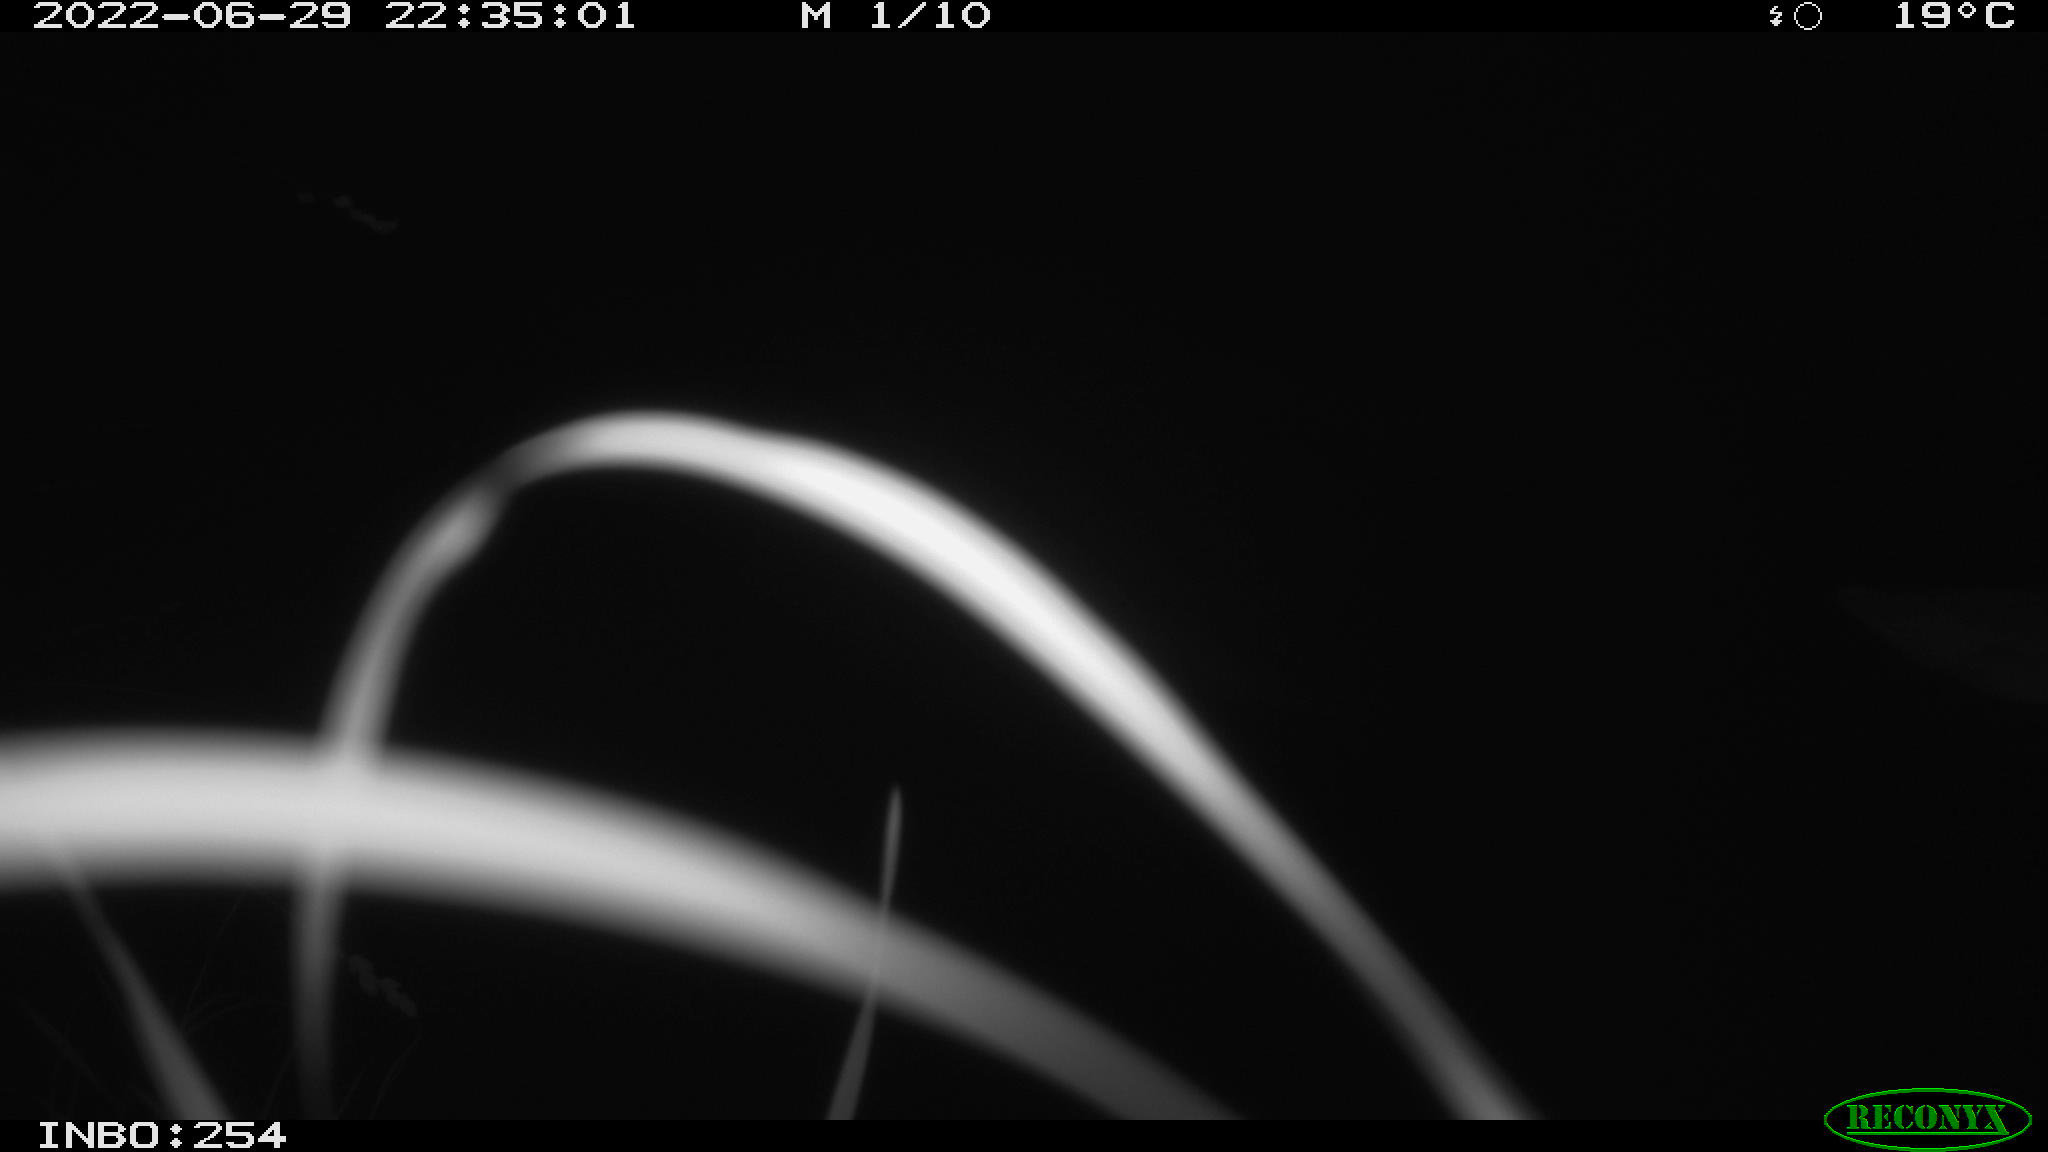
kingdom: Animalia
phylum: Chordata
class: Aves
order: Anseriformes
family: Anatidae
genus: Anas
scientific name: Anas platyrhynchos
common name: Mallard
